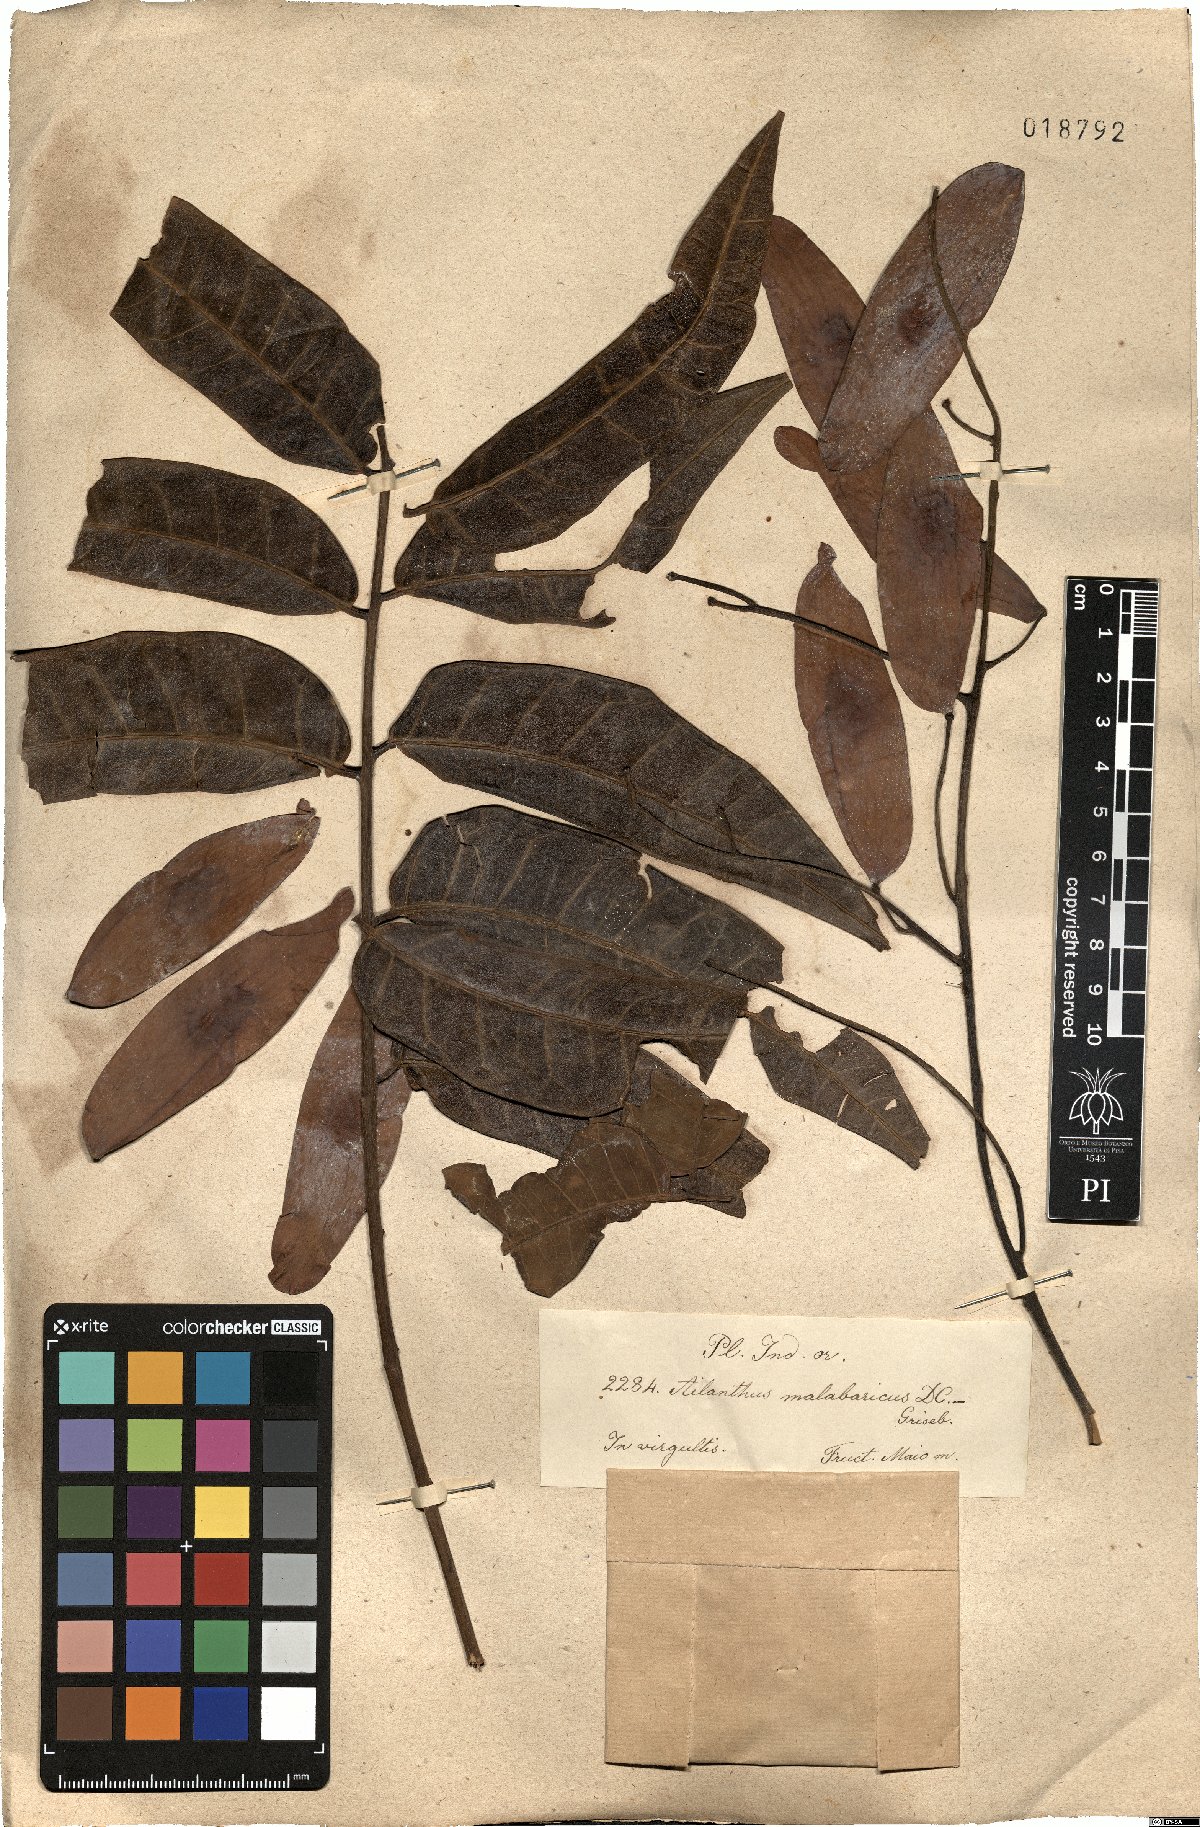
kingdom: Plantae
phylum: Tracheophyta
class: Magnoliopsida
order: Sapindales
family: Simaroubaceae
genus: Ailanthus
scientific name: Ailanthus triphysa
